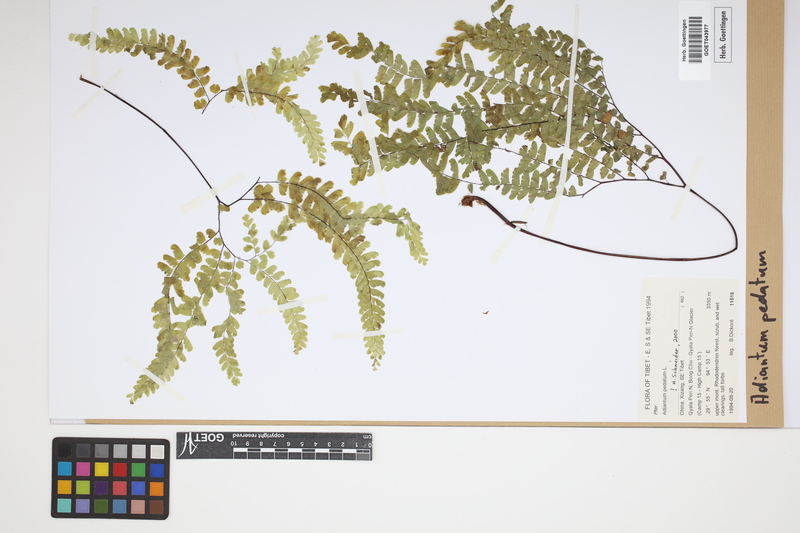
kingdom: Plantae
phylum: Tracheophyta
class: Polypodiopsida
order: Polypodiales
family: Pteridaceae
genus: Adiantum
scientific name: Adiantum pedatum
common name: Five-finger fern
